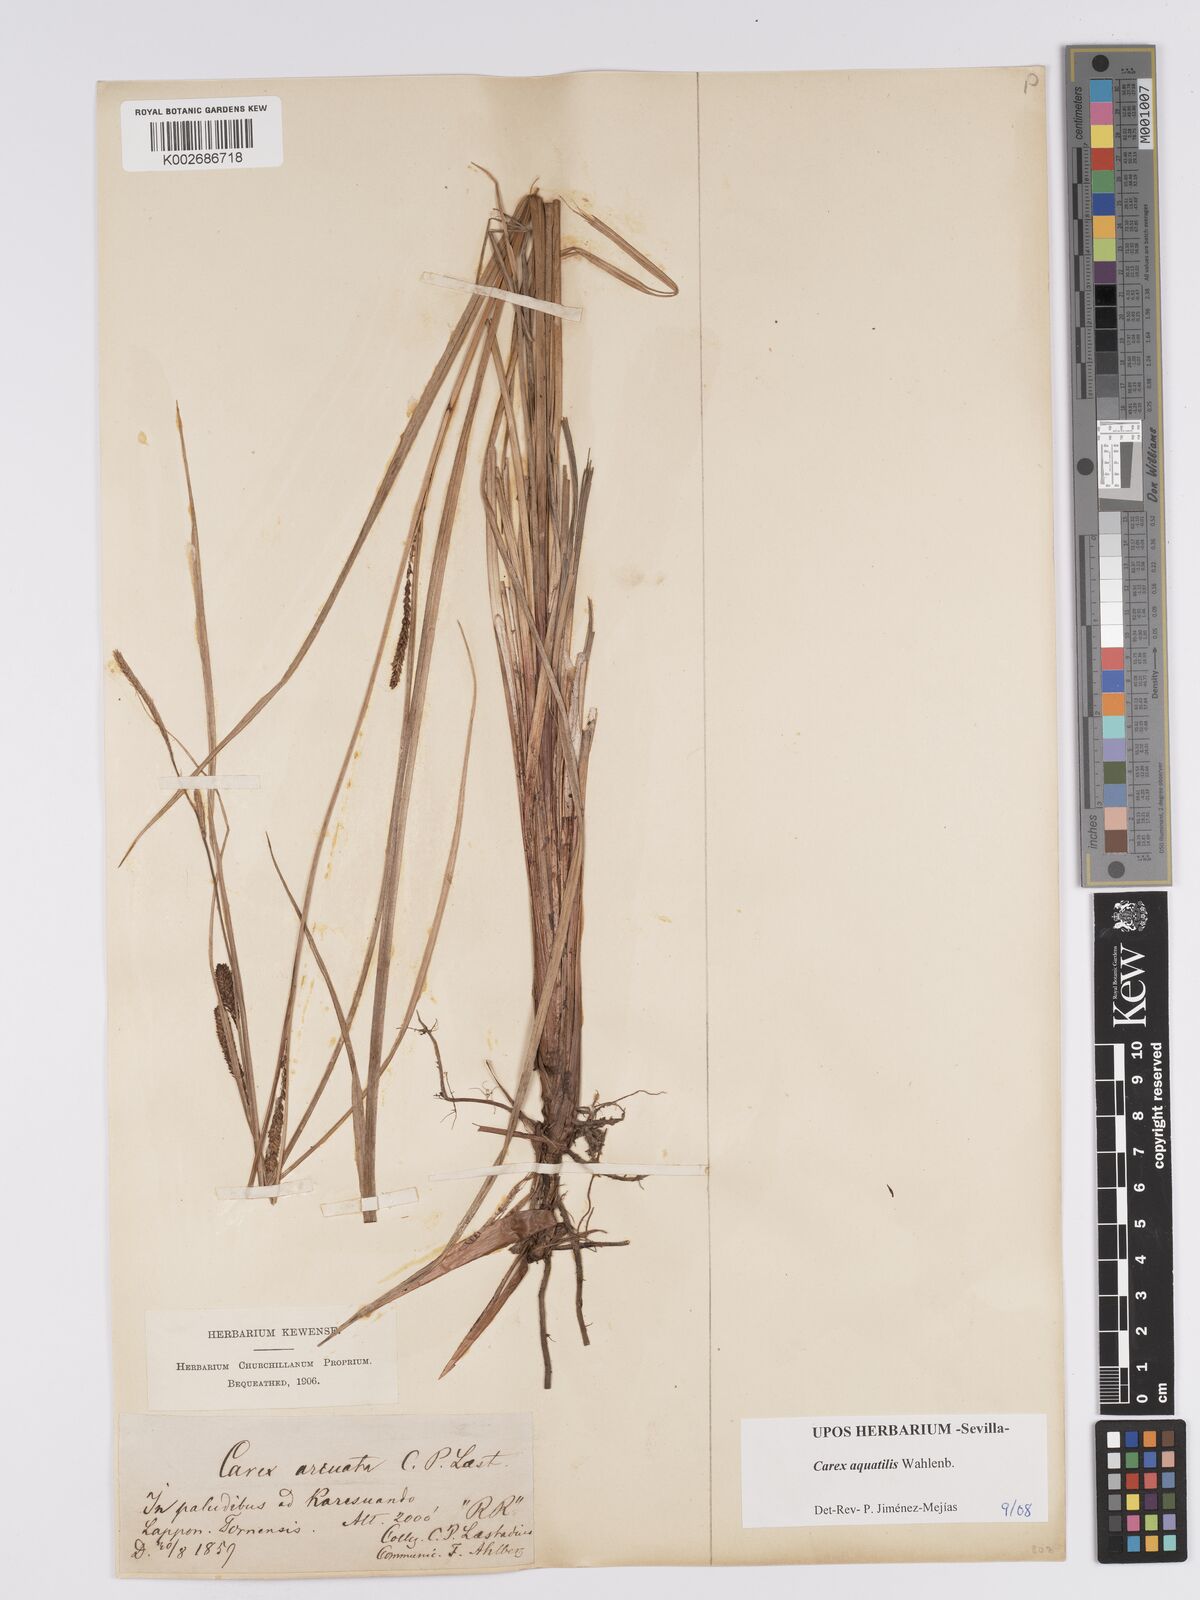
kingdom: Plantae
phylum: Tracheophyta
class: Liliopsida
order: Poales
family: Cyperaceae
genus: Carex
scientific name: Carex aquatilis
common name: Water sedge
